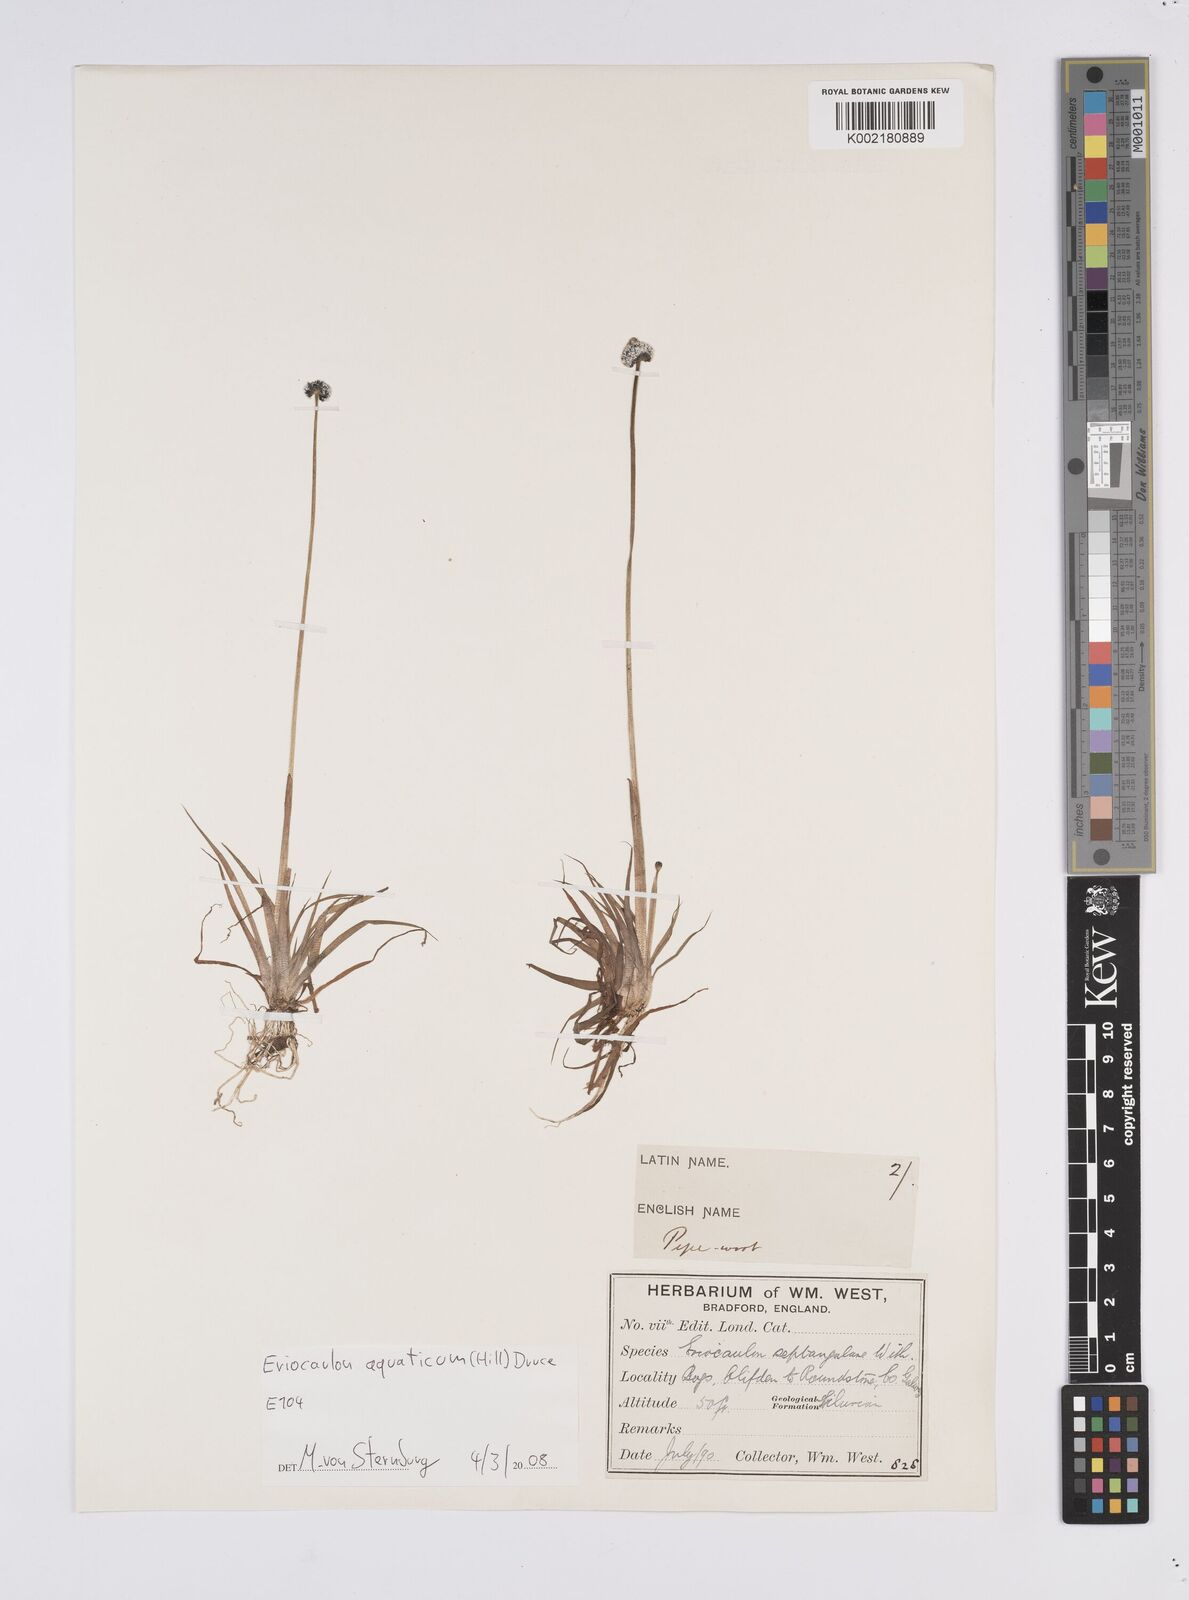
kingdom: Plantae
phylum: Tracheophyta
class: Liliopsida
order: Poales
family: Eriocaulaceae
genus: Eriocaulon
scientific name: Eriocaulon aquaticum
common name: Pipewort
